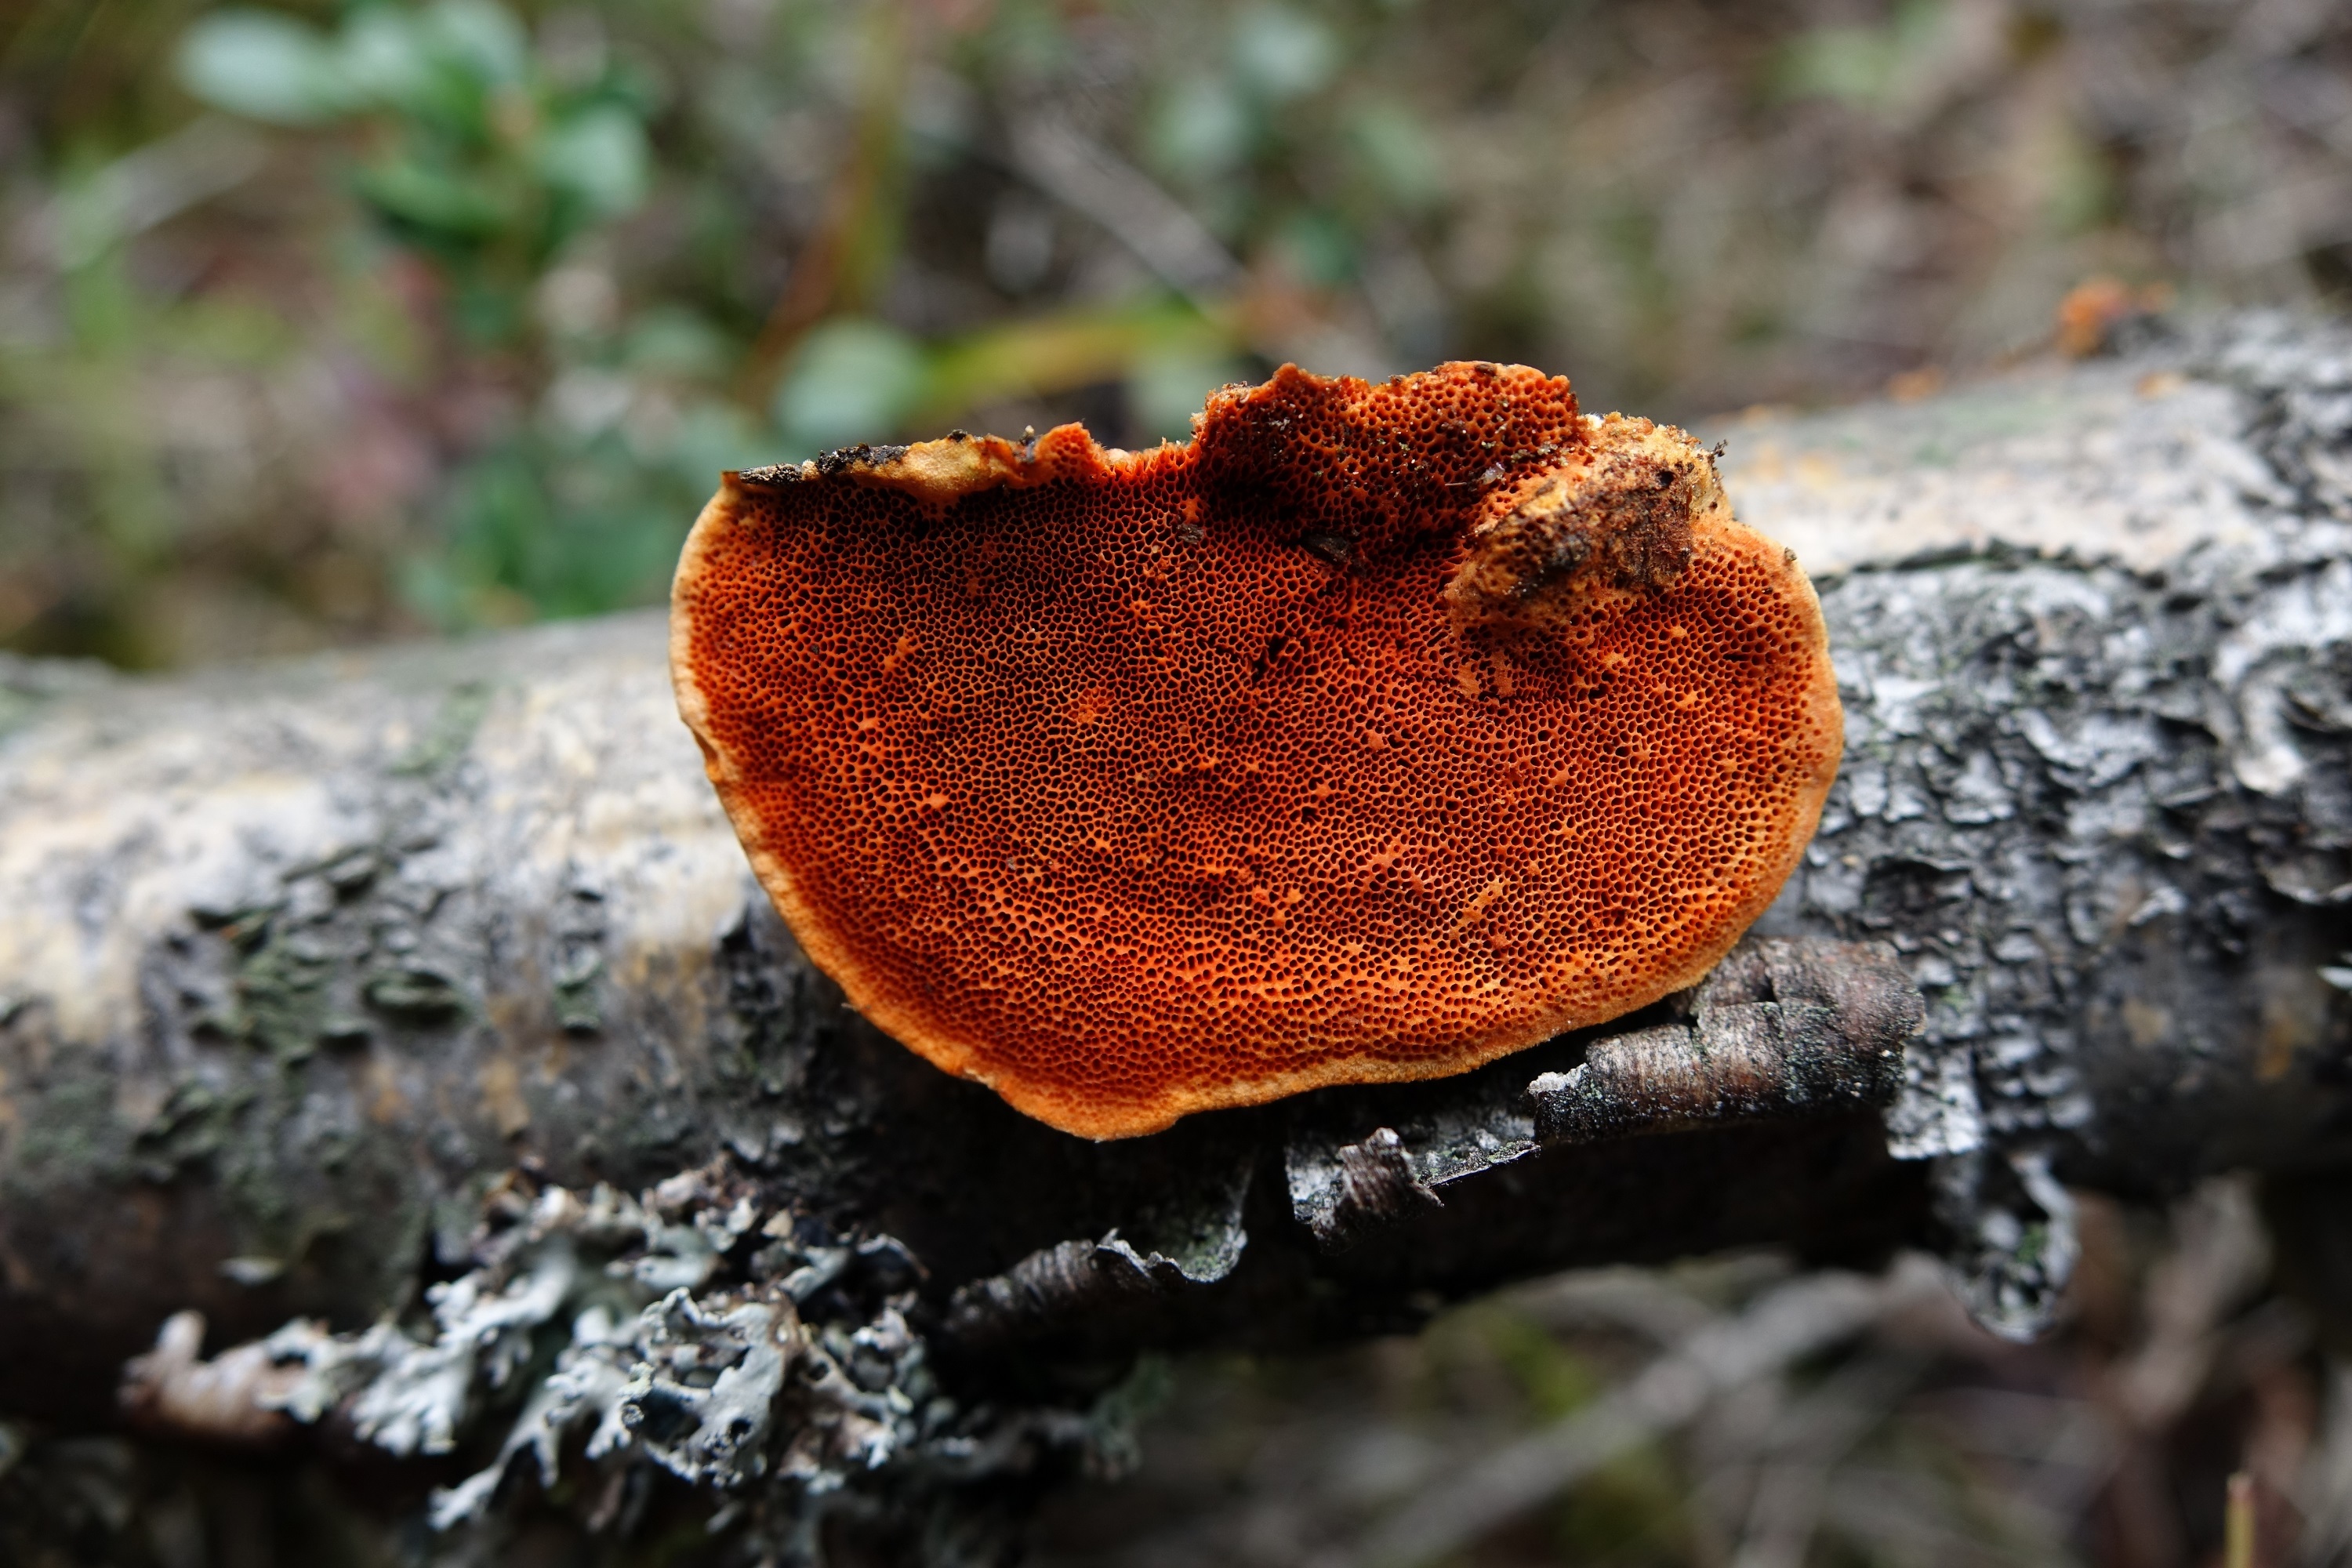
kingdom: Fungi
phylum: Basidiomycota
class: Agaricomycetes
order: Polyporales
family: Polyporaceae
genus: Trametes
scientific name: Trametes cinnabarina
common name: Northern cinnabar polypore
